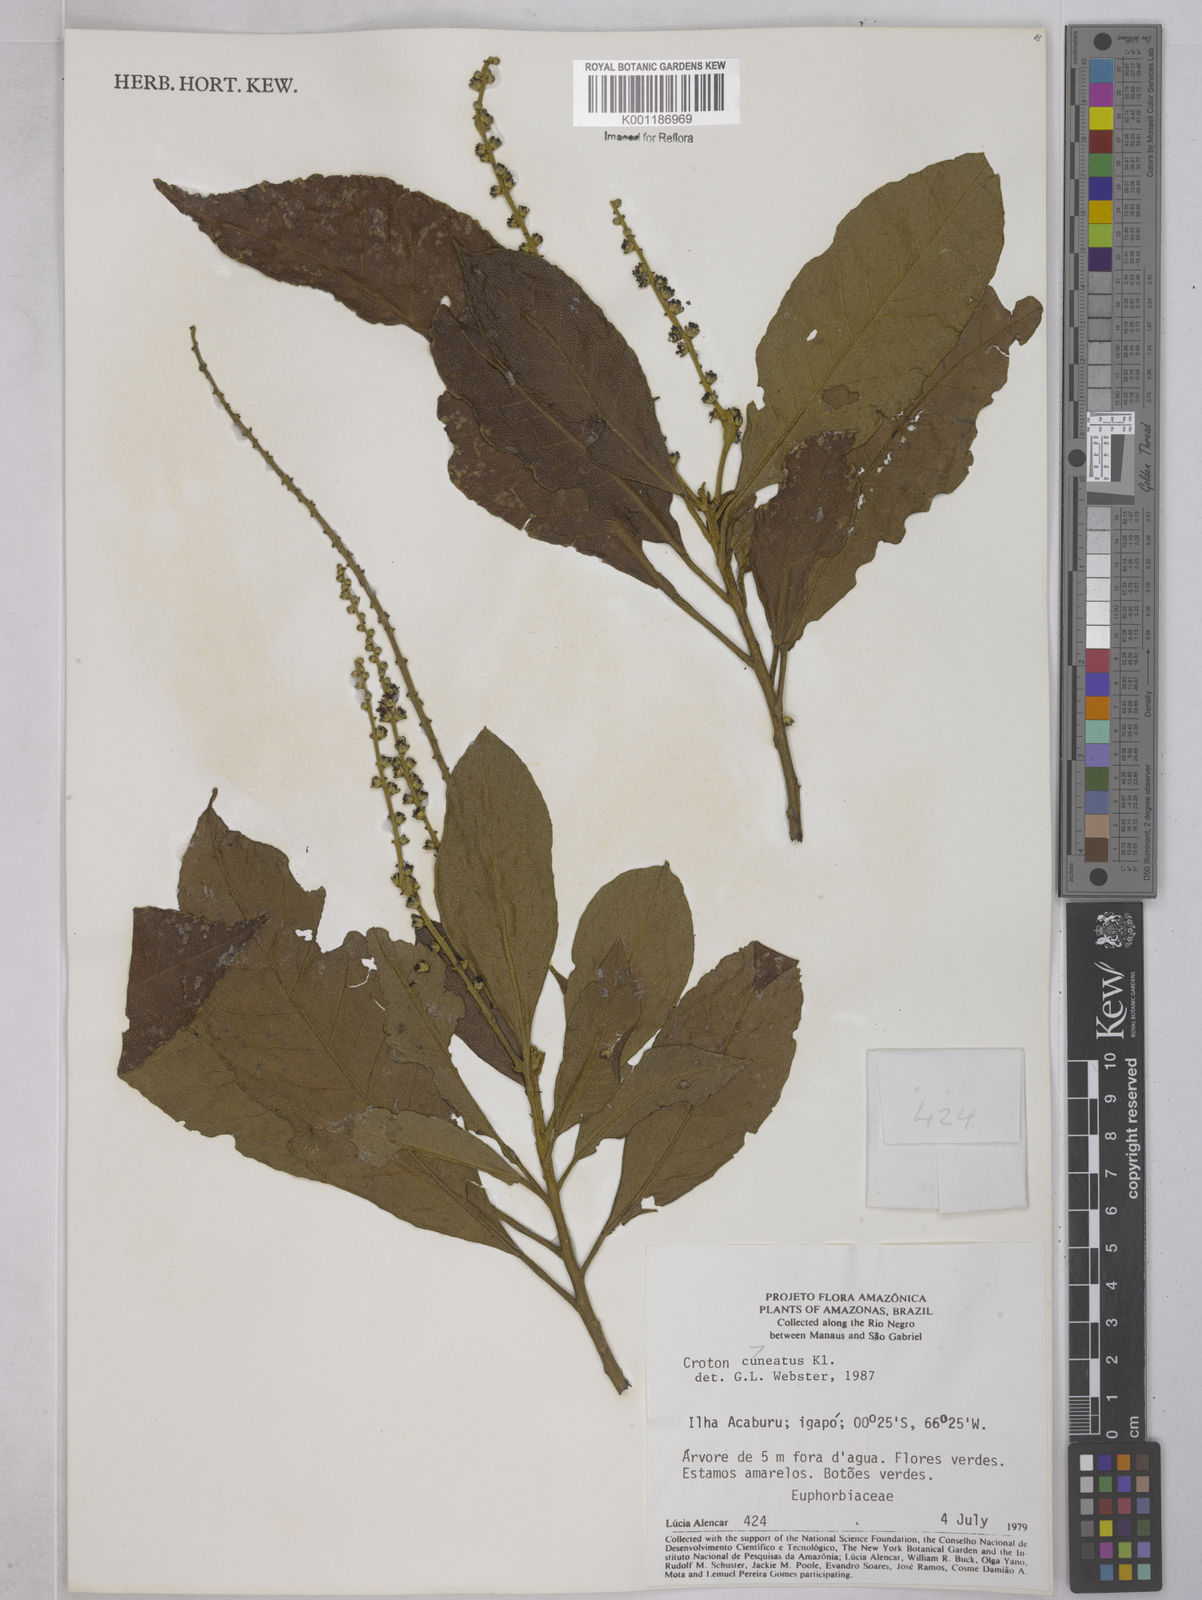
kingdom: Plantae
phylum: Tracheophyta
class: Magnoliopsida
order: Malpighiales
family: Euphorbiaceae
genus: Croton
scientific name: Croton
